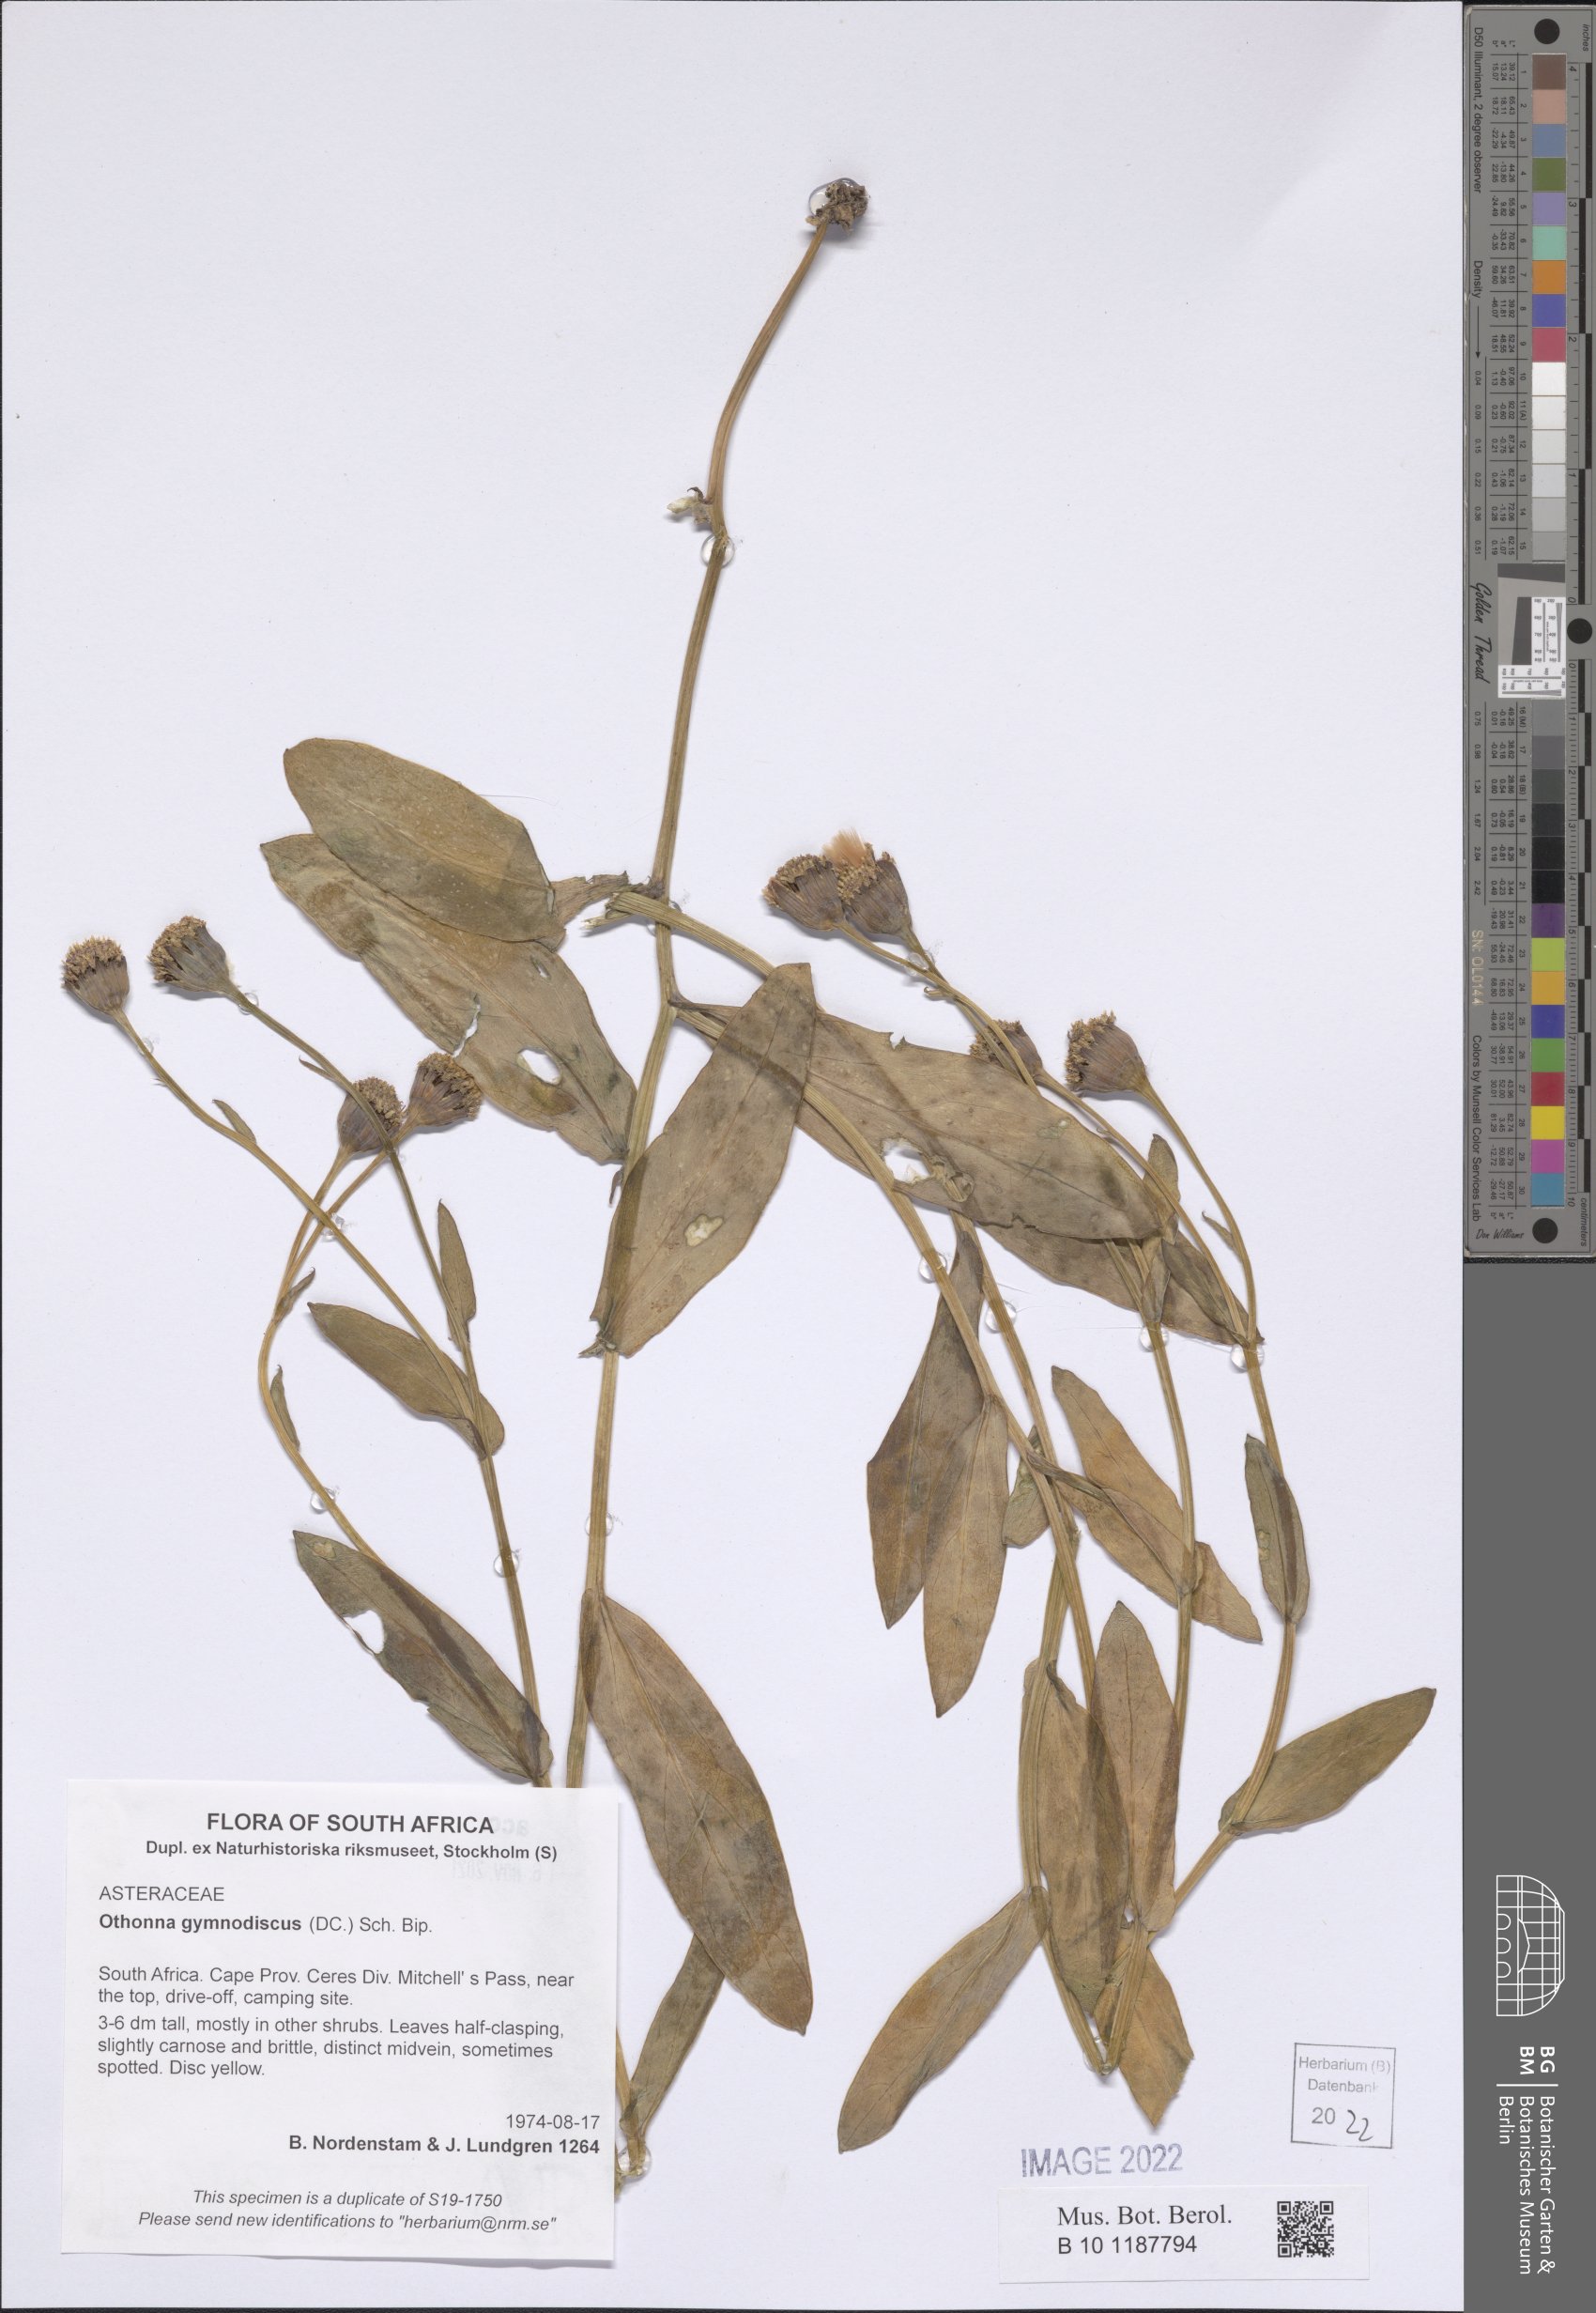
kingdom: Plantae
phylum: Tracheophyta
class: Magnoliopsida
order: Asterales
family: Asteraceae
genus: Othonna
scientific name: Othonna gymnodiscus
